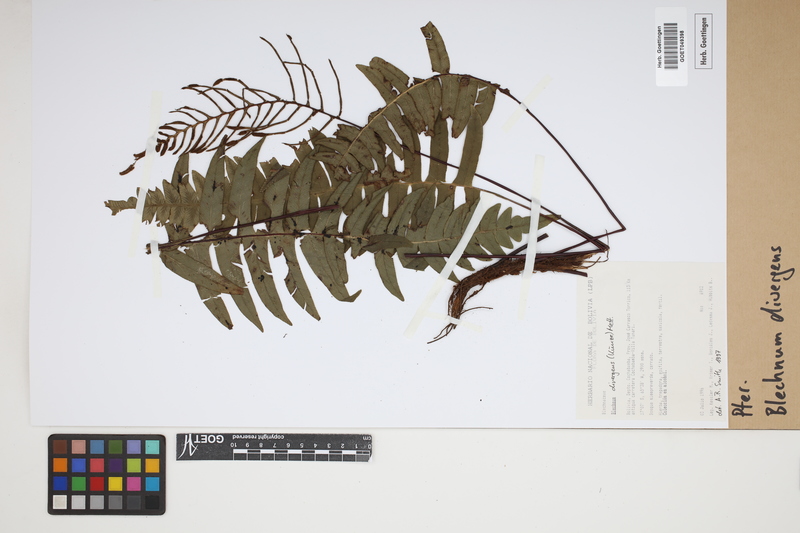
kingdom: Plantae
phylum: Tracheophyta
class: Polypodiopsida
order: Polypodiales
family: Blechnaceae
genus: Austroblechnum
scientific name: Austroblechnum divergens
